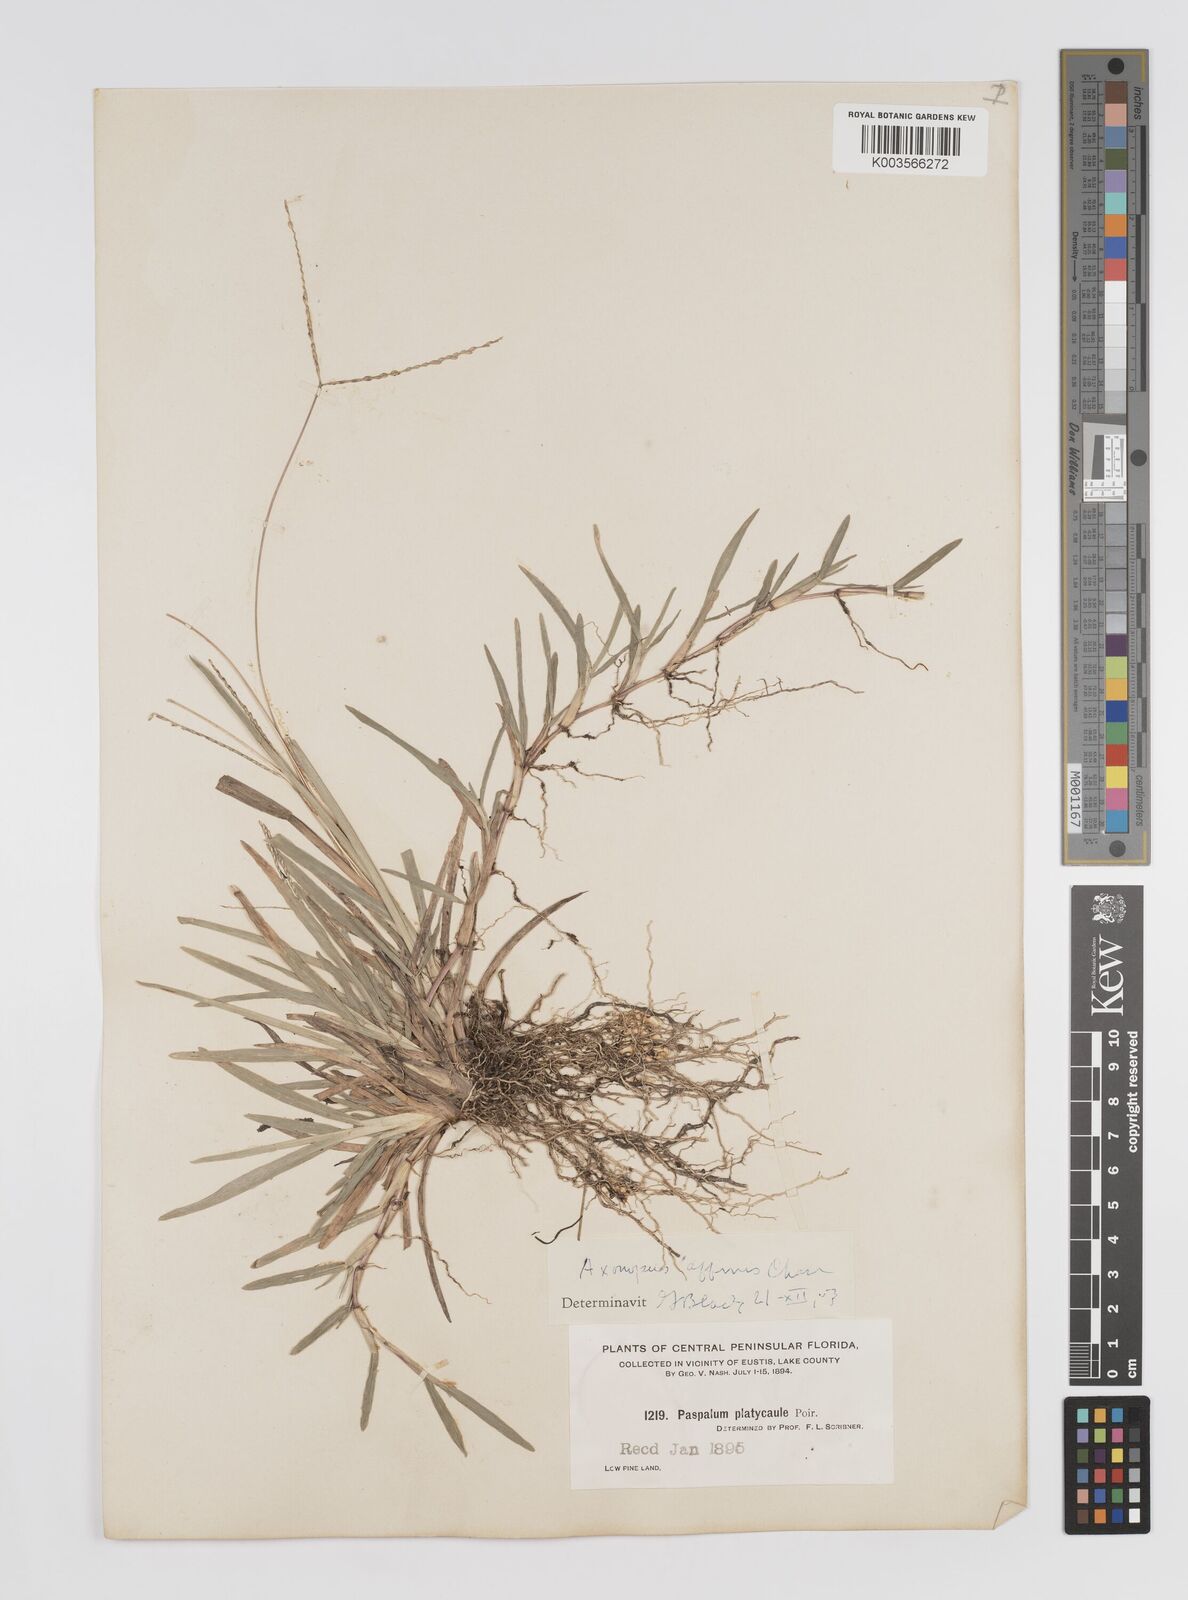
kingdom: Plantae
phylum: Tracheophyta
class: Liliopsida
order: Poales
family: Poaceae
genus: Axonopus
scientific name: Axonopus fissifolius
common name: Common carpetgrass
